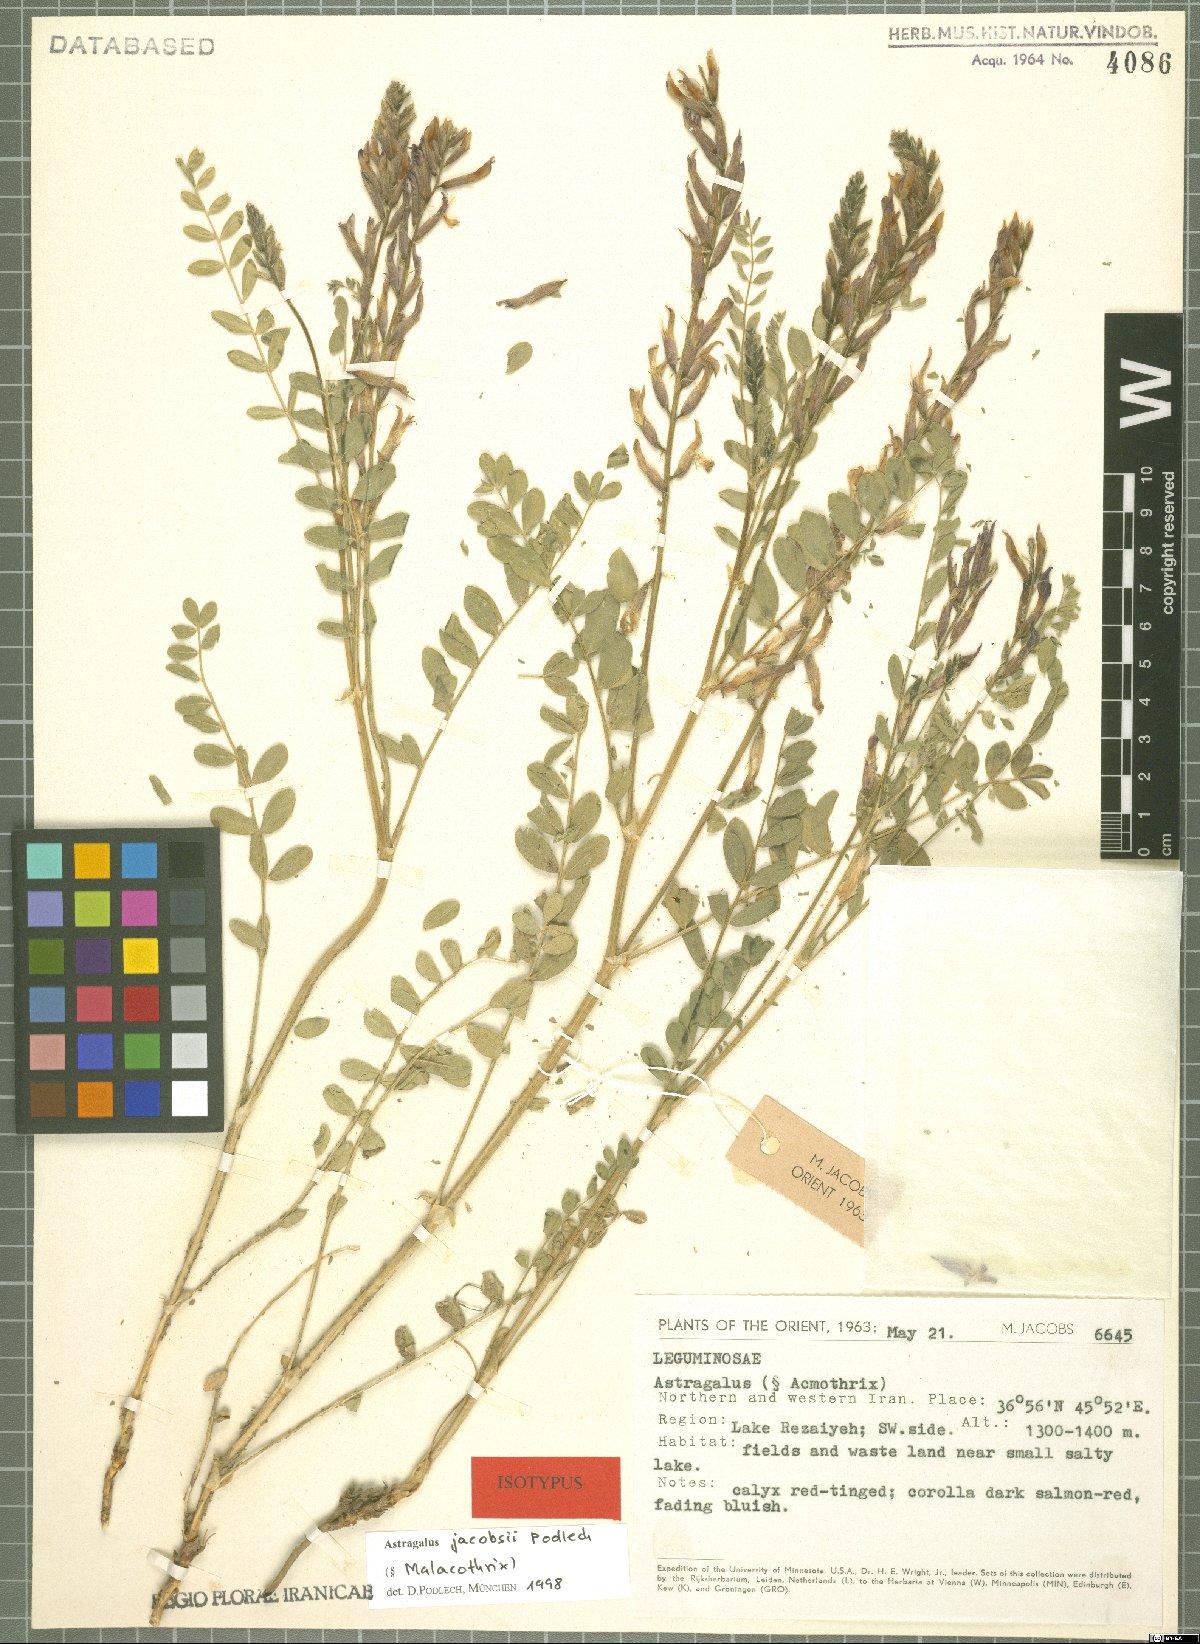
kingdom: Plantae
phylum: Tracheophyta
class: Magnoliopsida
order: Fabales
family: Fabaceae
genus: Astragalus
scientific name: Astragalus jacobsii
